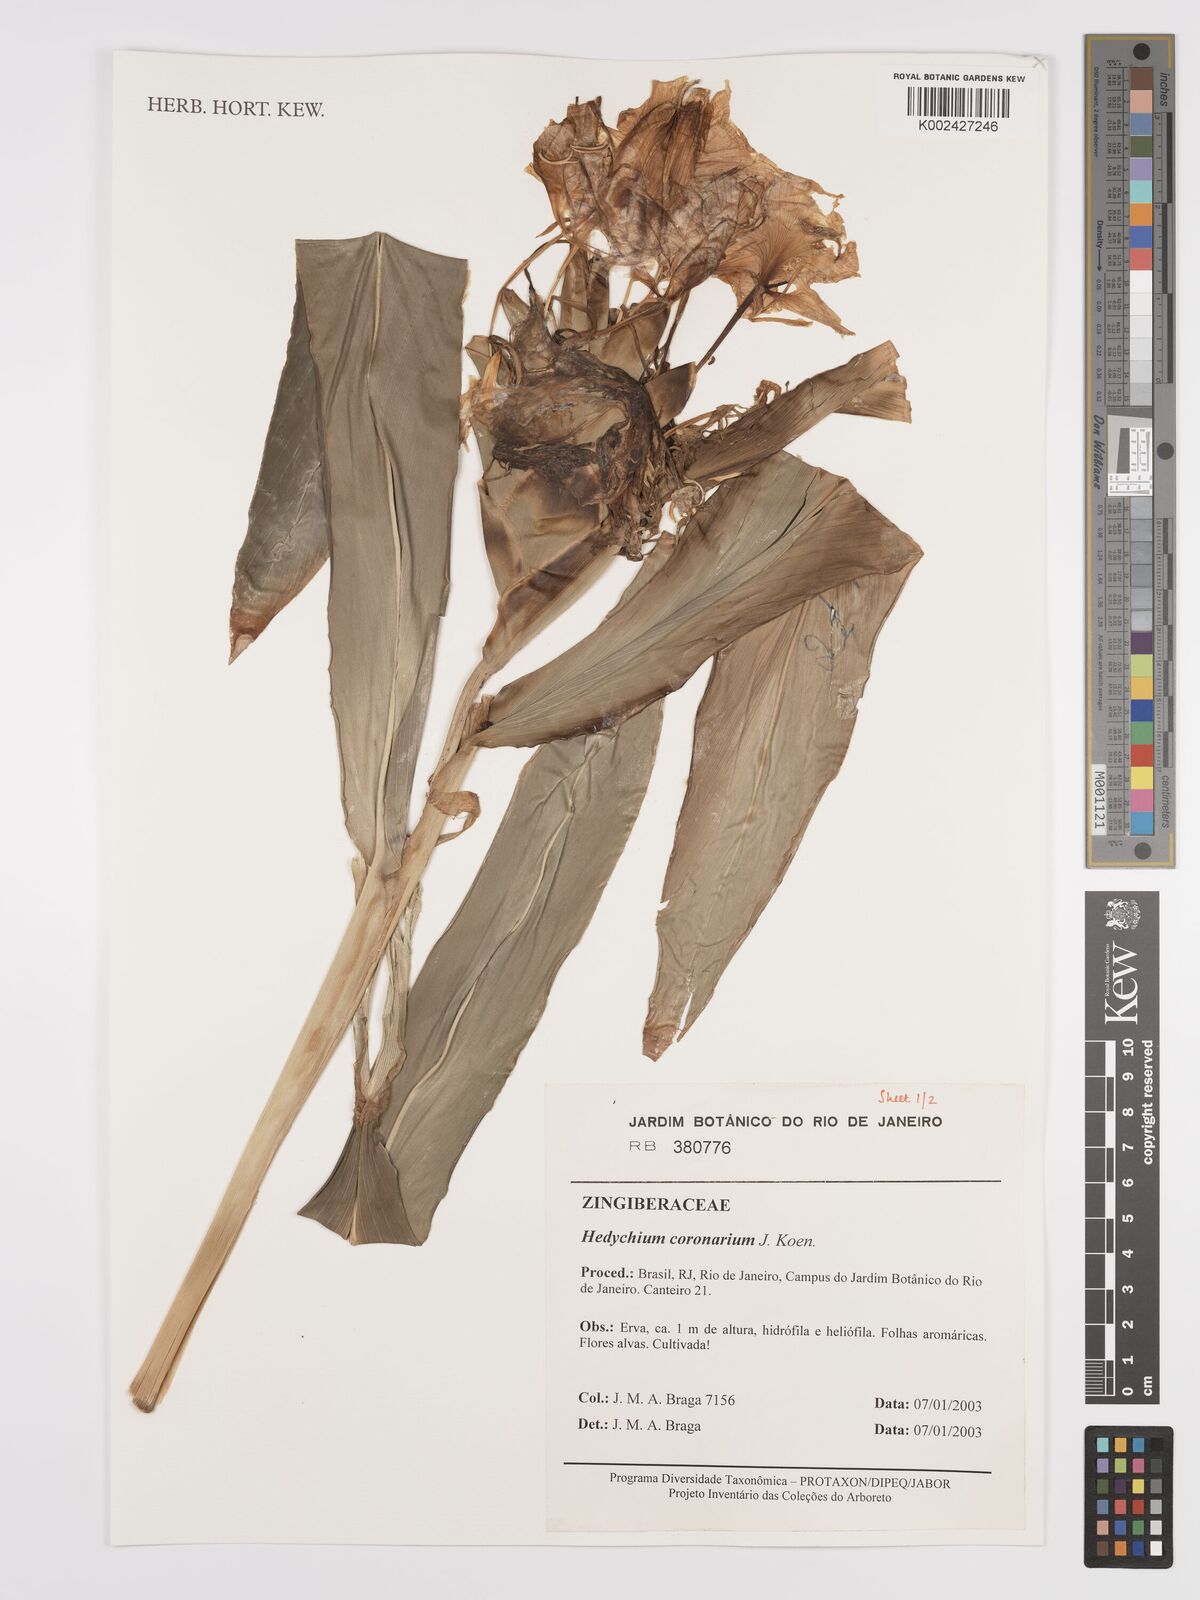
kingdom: Plantae
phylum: Tracheophyta
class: Liliopsida
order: Zingiberales
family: Zingiberaceae
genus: Hedychium
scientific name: Hedychium coronarium
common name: White garland-lily
